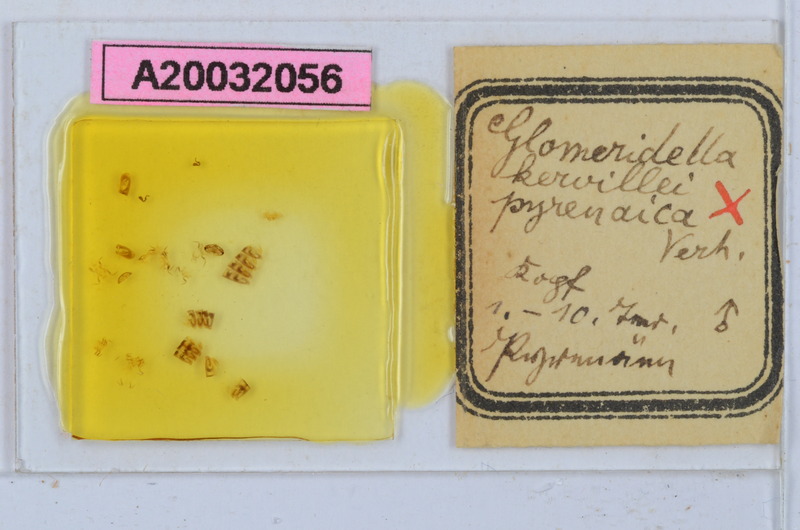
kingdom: Animalia
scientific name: Animalia
